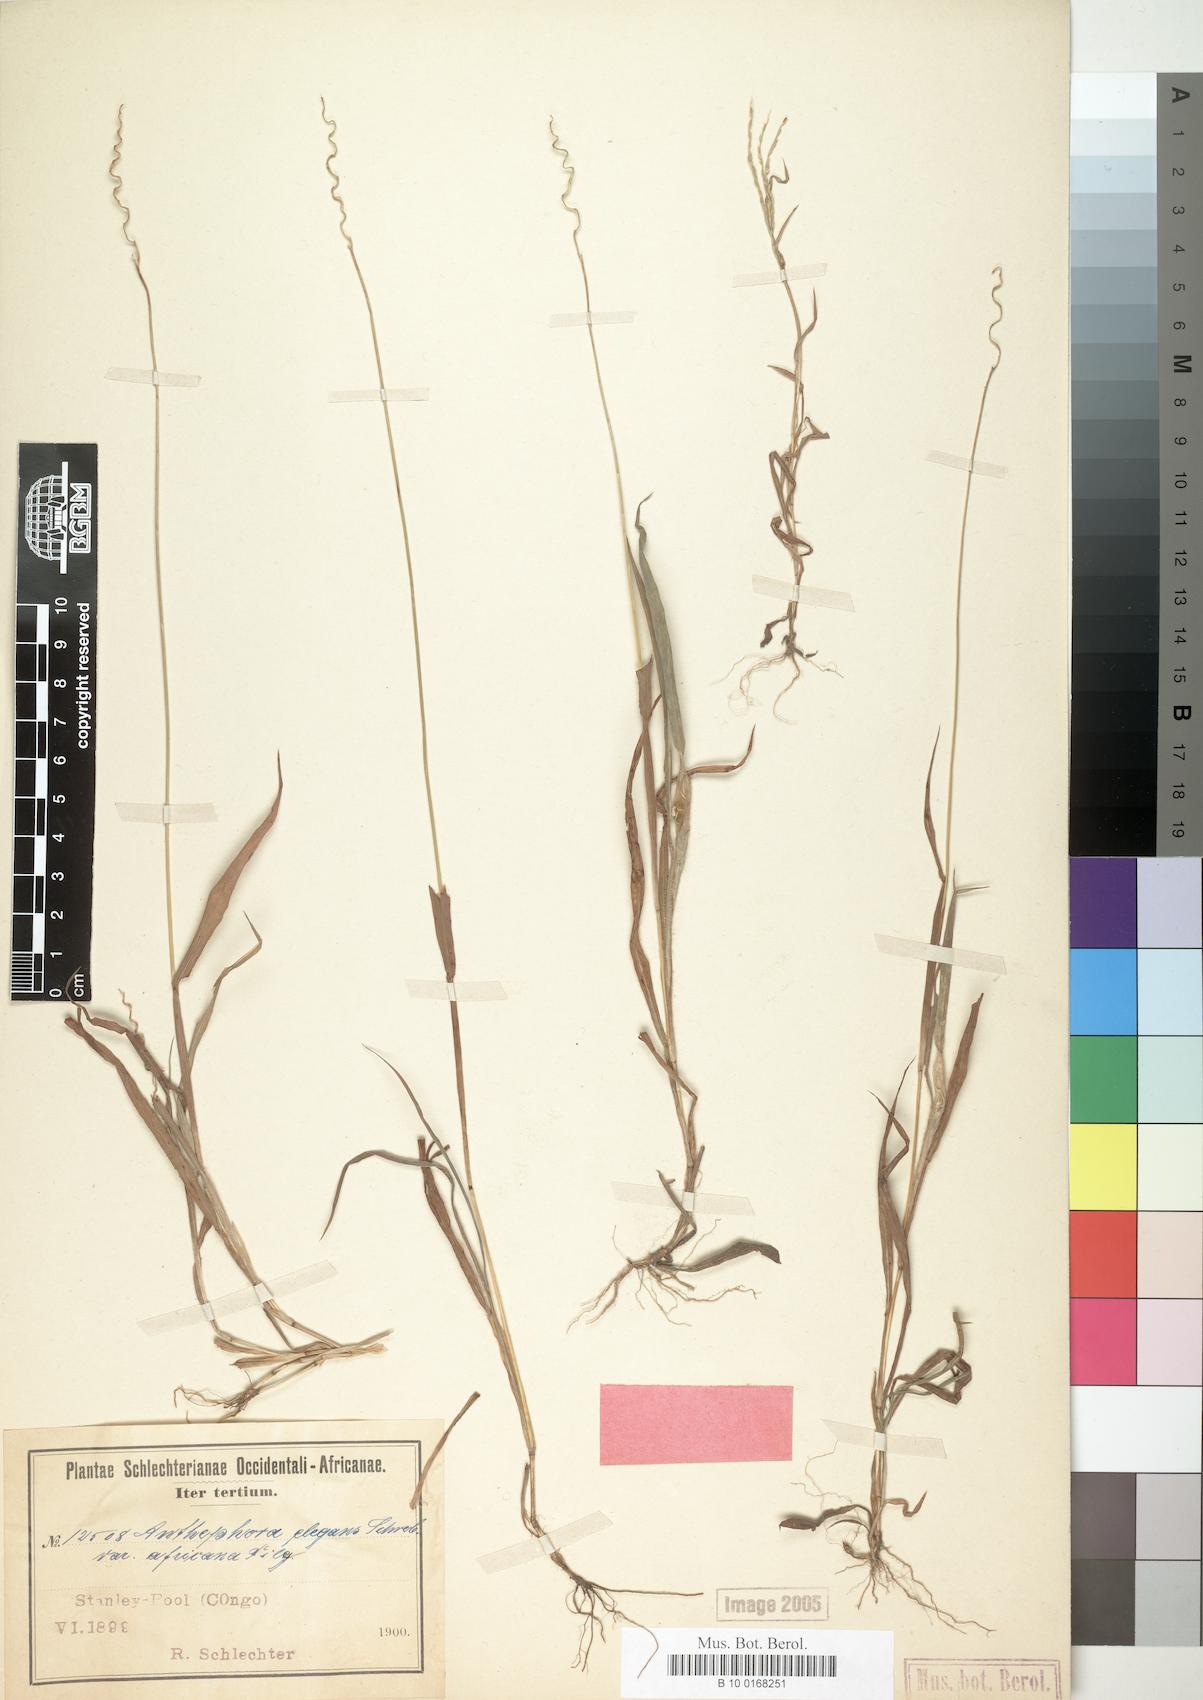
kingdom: Plantae
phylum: Tracheophyta
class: Liliopsida
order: Poales
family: Poaceae
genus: Anthephora
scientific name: Anthephora cristata
